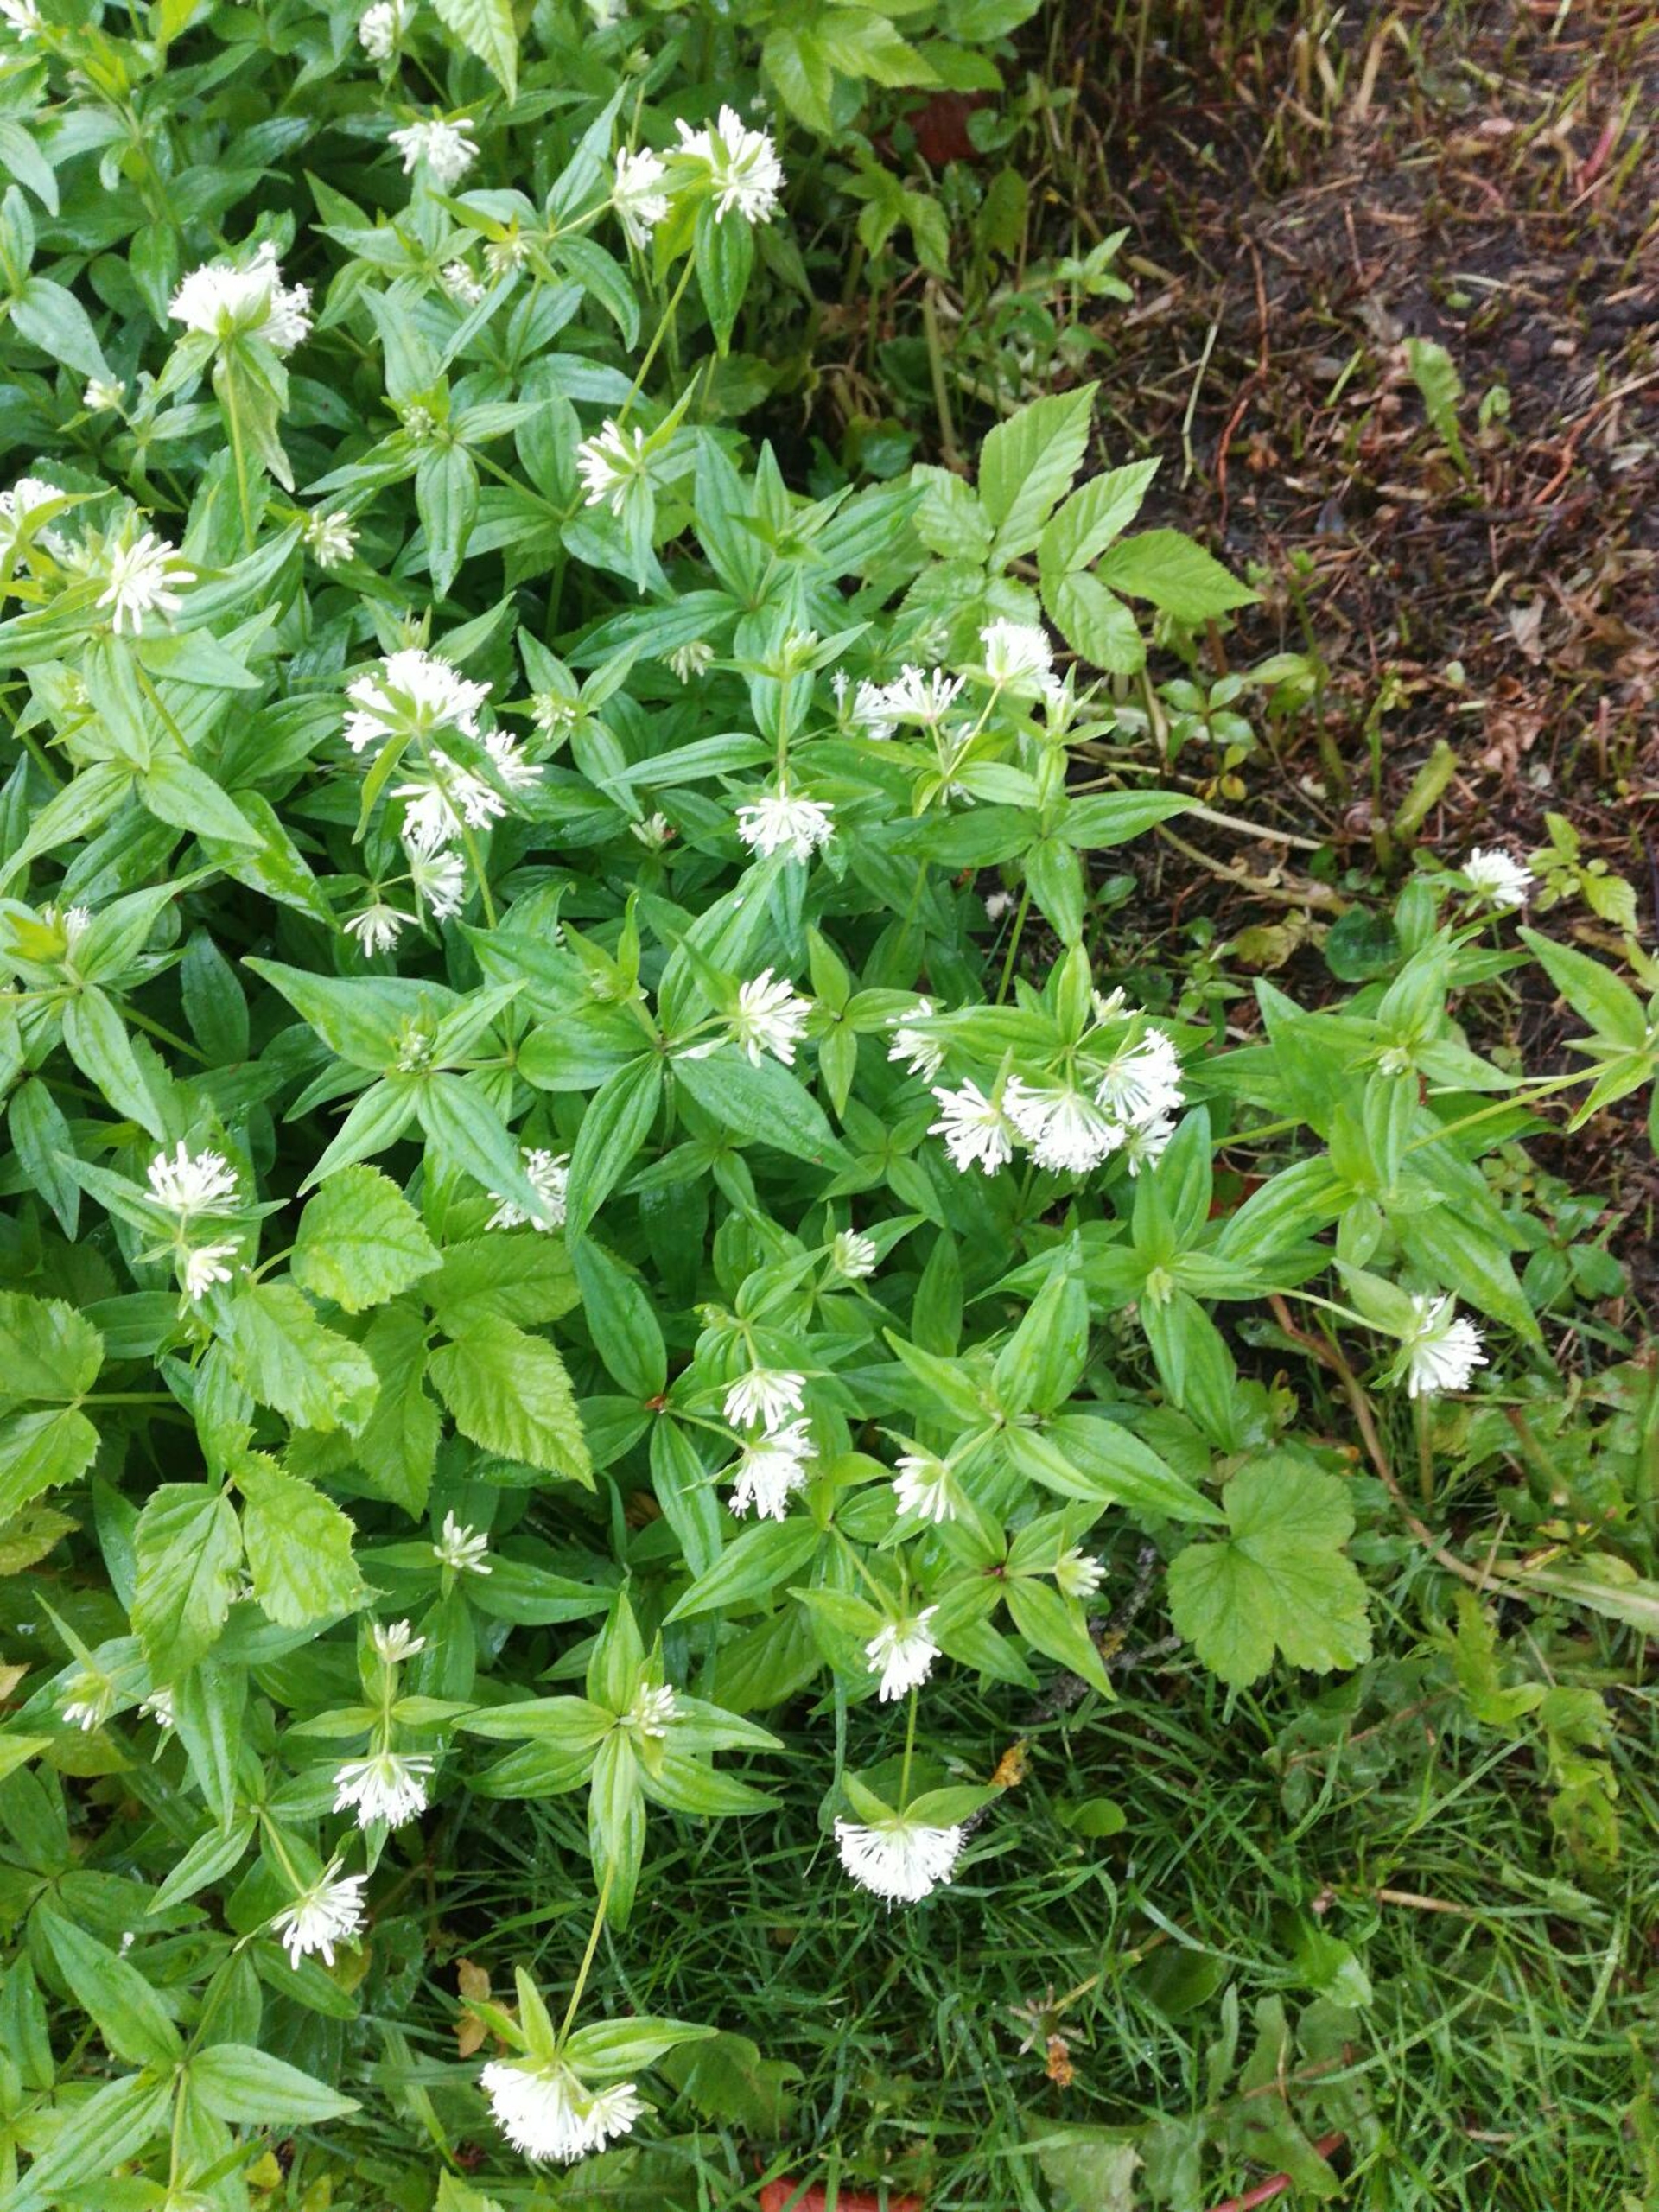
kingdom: Plantae
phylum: Tracheophyta
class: Magnoliopsida
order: Gentianales
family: Rubiaceae
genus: Asperula
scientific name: Asperula taurina
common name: Kaukasisk mysike
